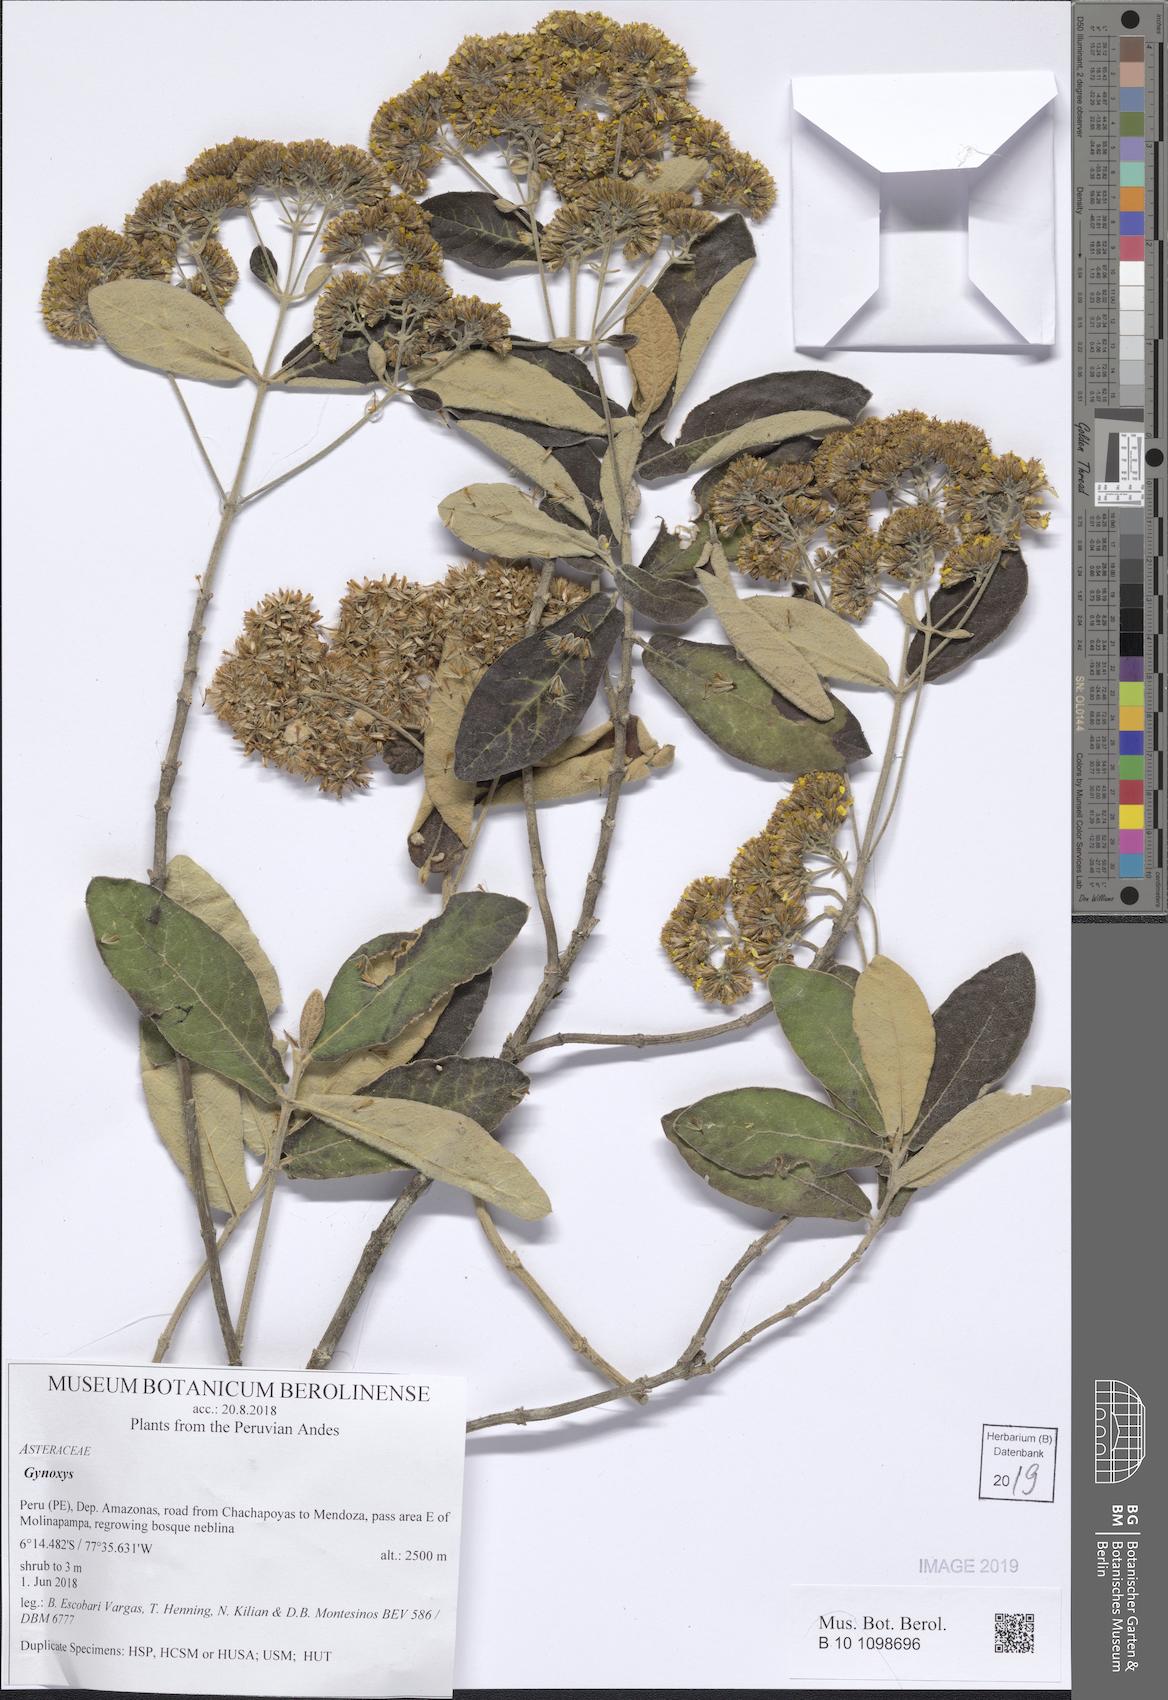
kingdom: Plantae
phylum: Tracheophyta
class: Magnoliopsida
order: Asterales
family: Asteraceae
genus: Gynoxys
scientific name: Gynoxys
